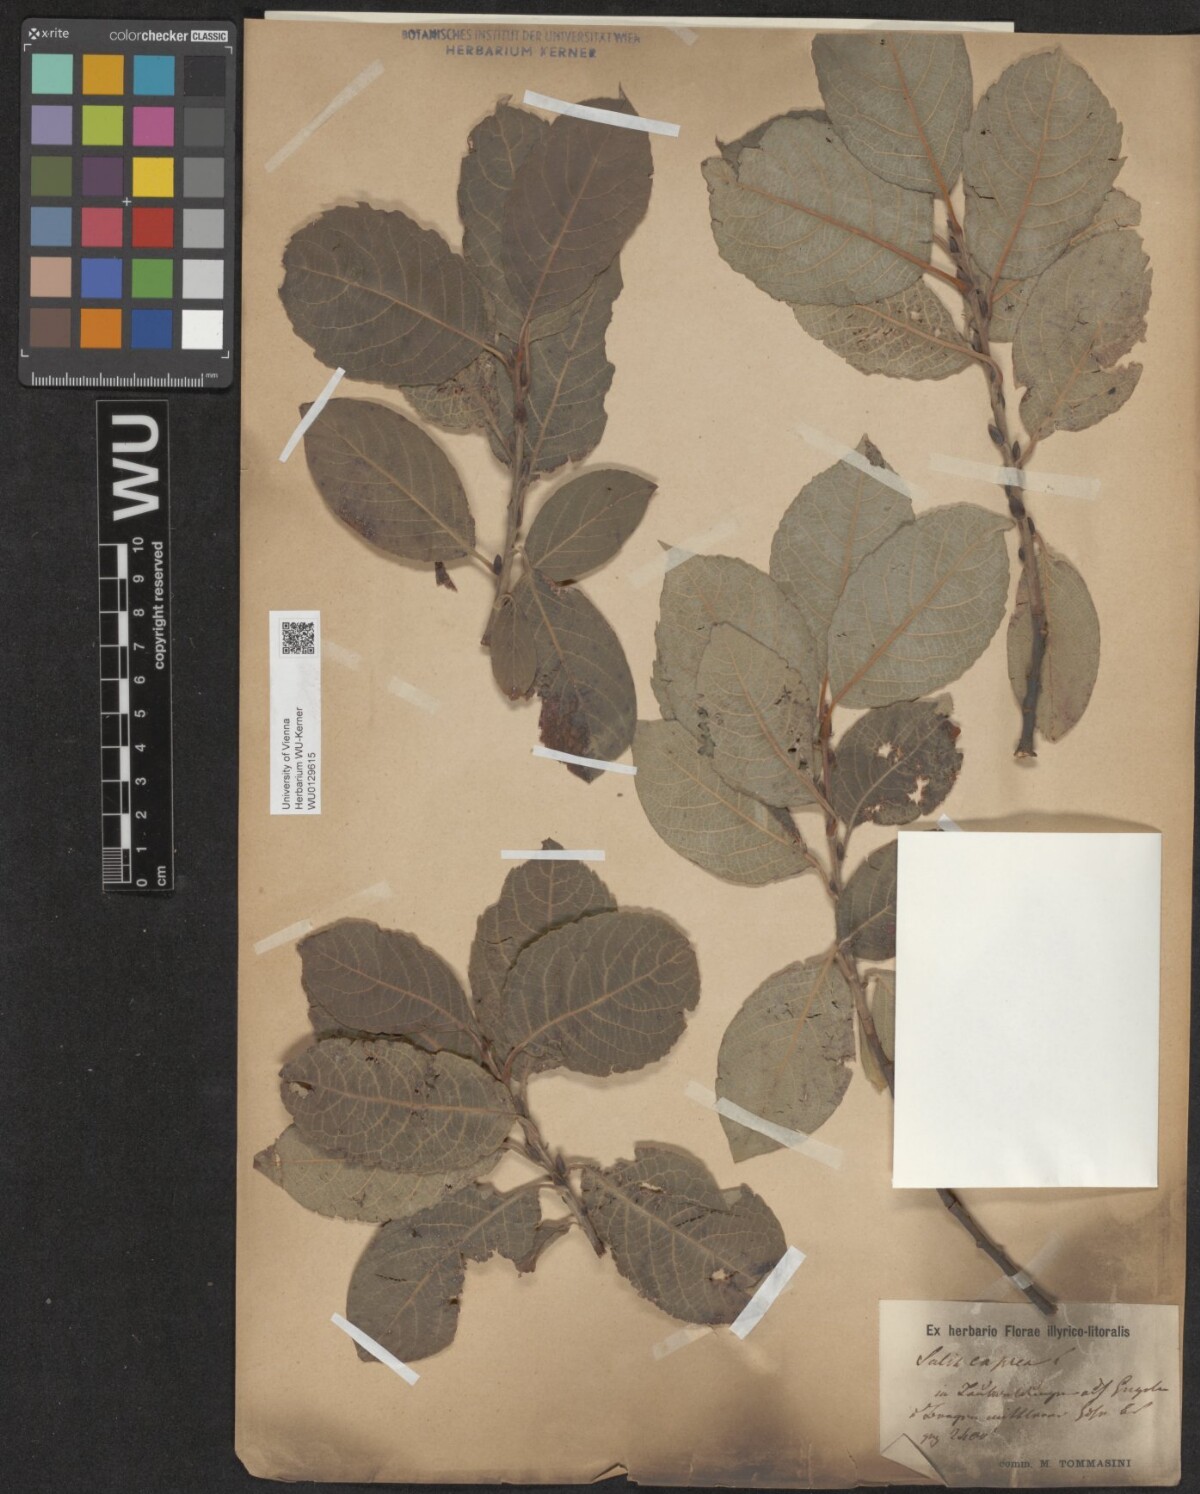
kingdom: Plantae
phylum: Tracheophyta
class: Magnoliopsida
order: Malpighiales
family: Salicaceae
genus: Salix
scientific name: Salix caprea
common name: Goat willow
